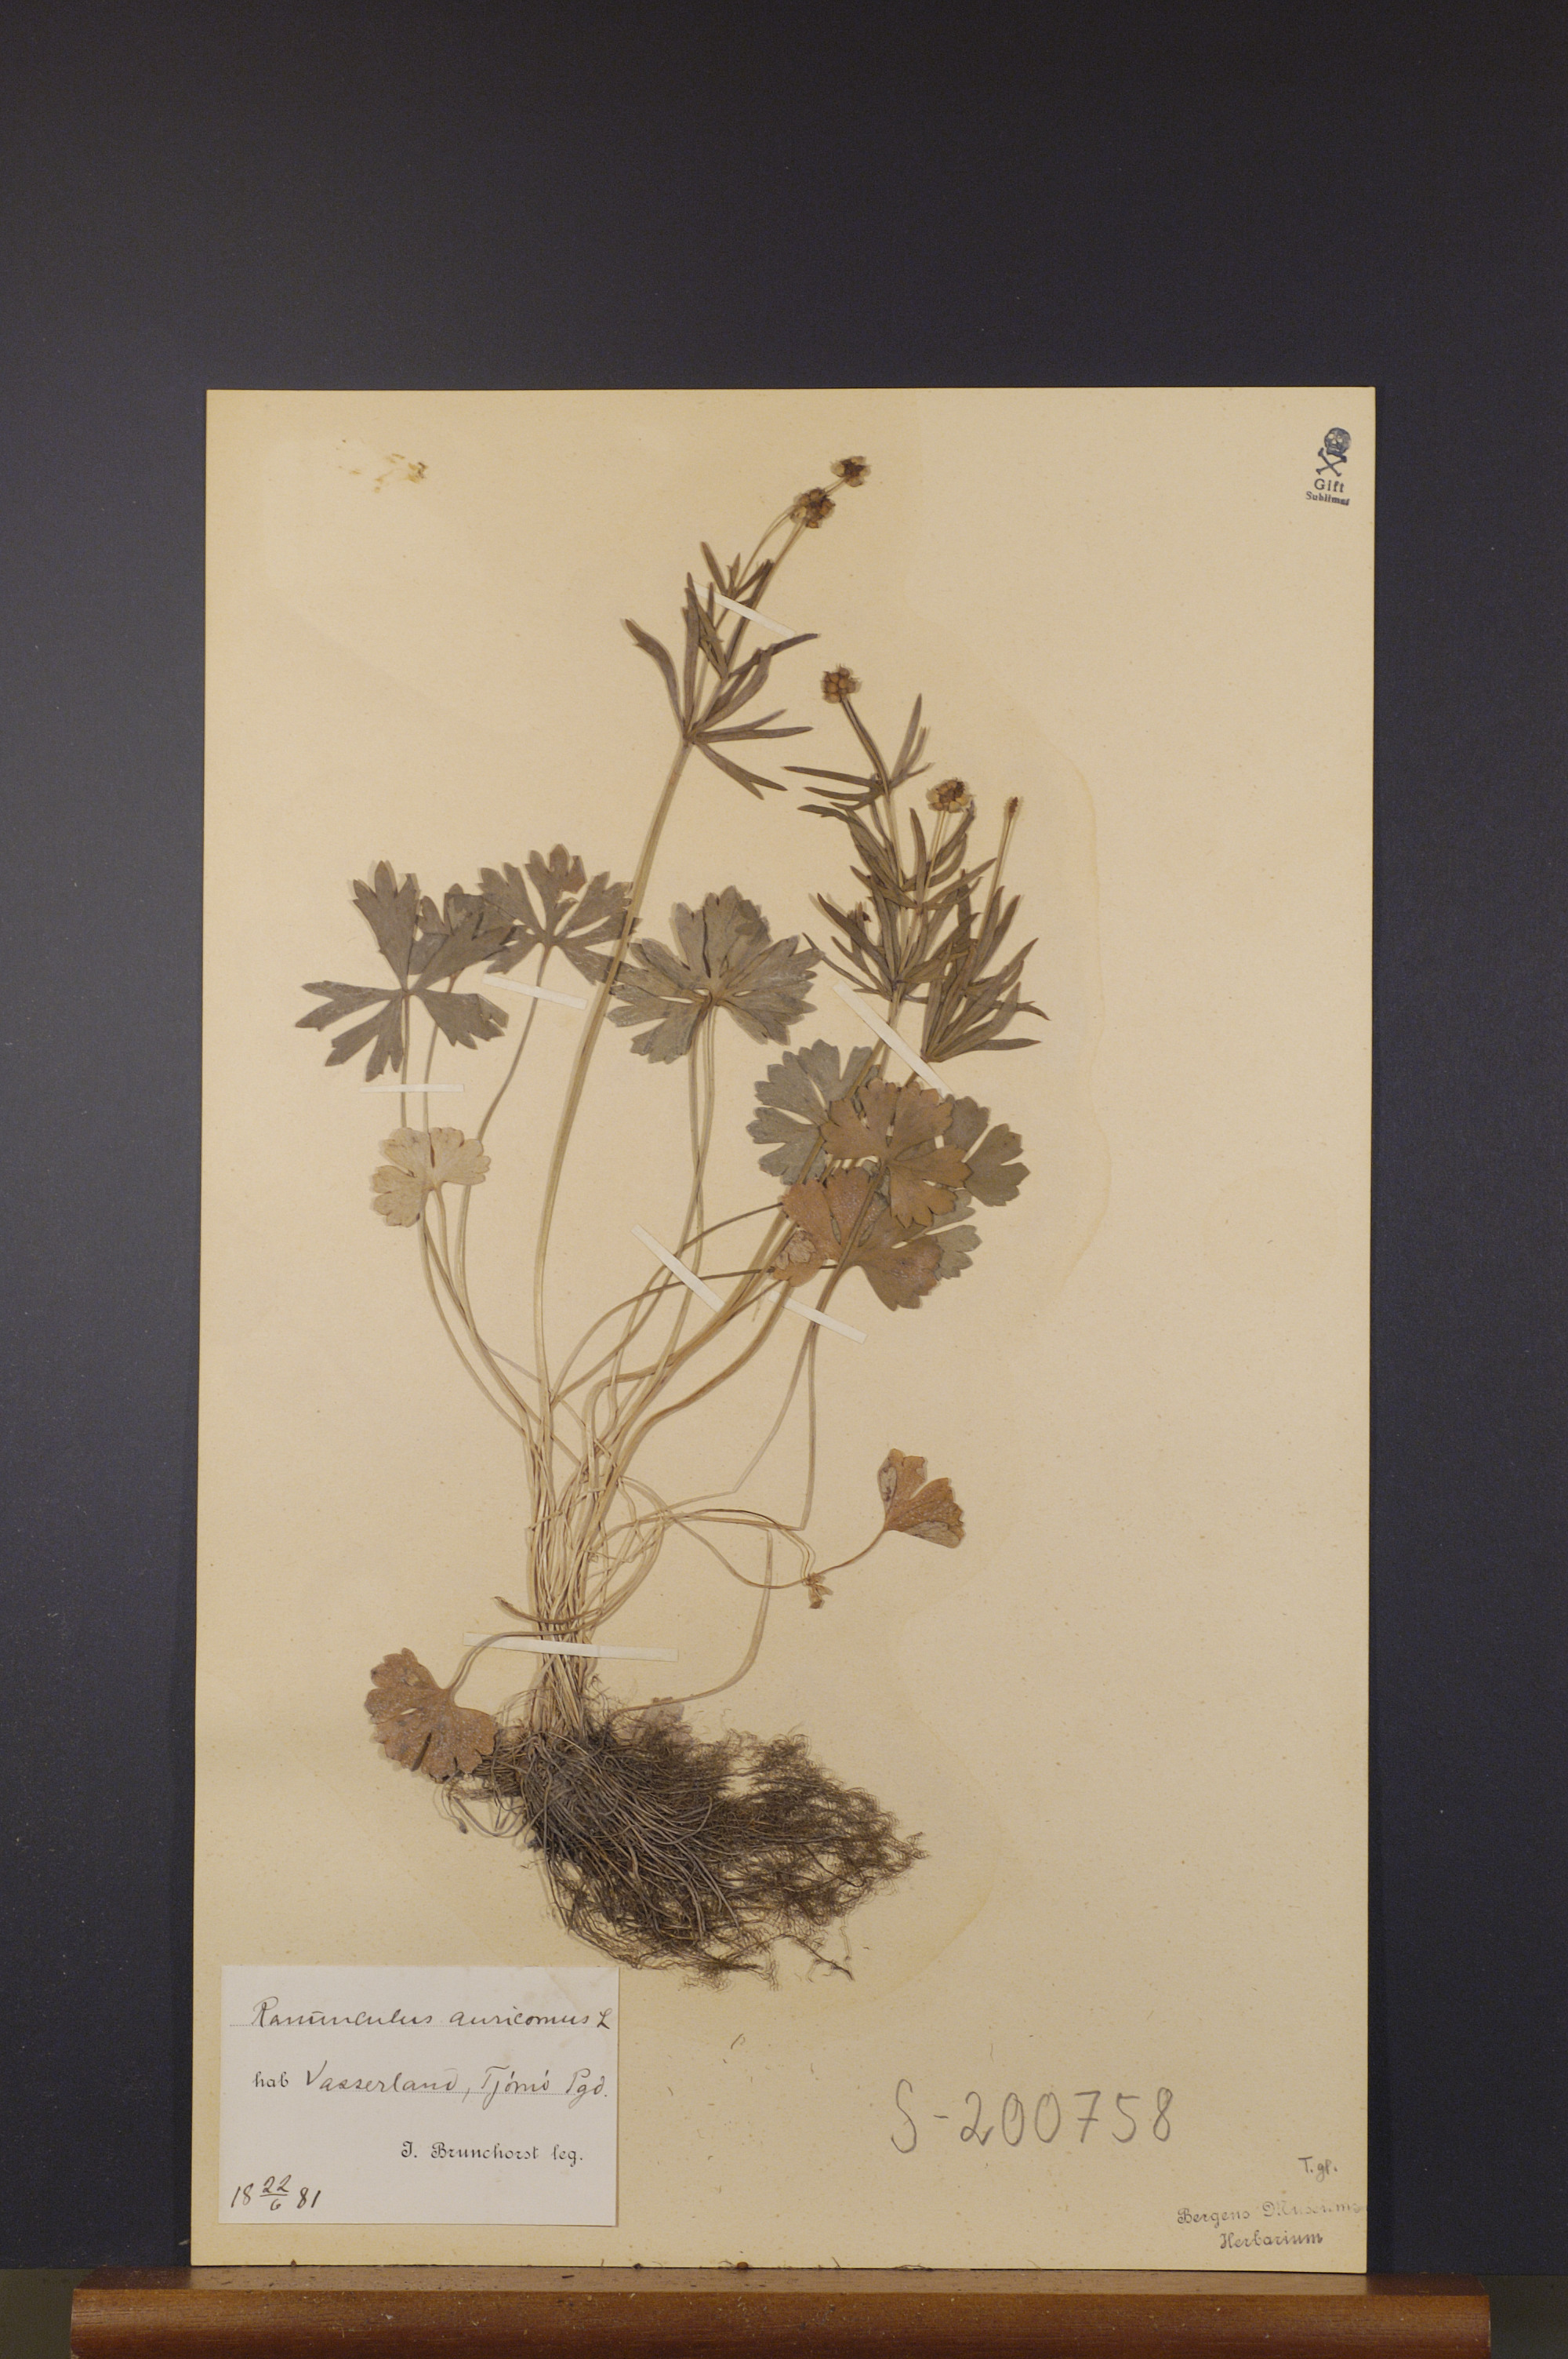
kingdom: Plantae
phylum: Tracheophyta
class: Magnoliopsida
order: Ranunculales
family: Ranunculaceae
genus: Ranunculus
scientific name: Ranunculus auricomus
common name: Goldilocks buttercup
